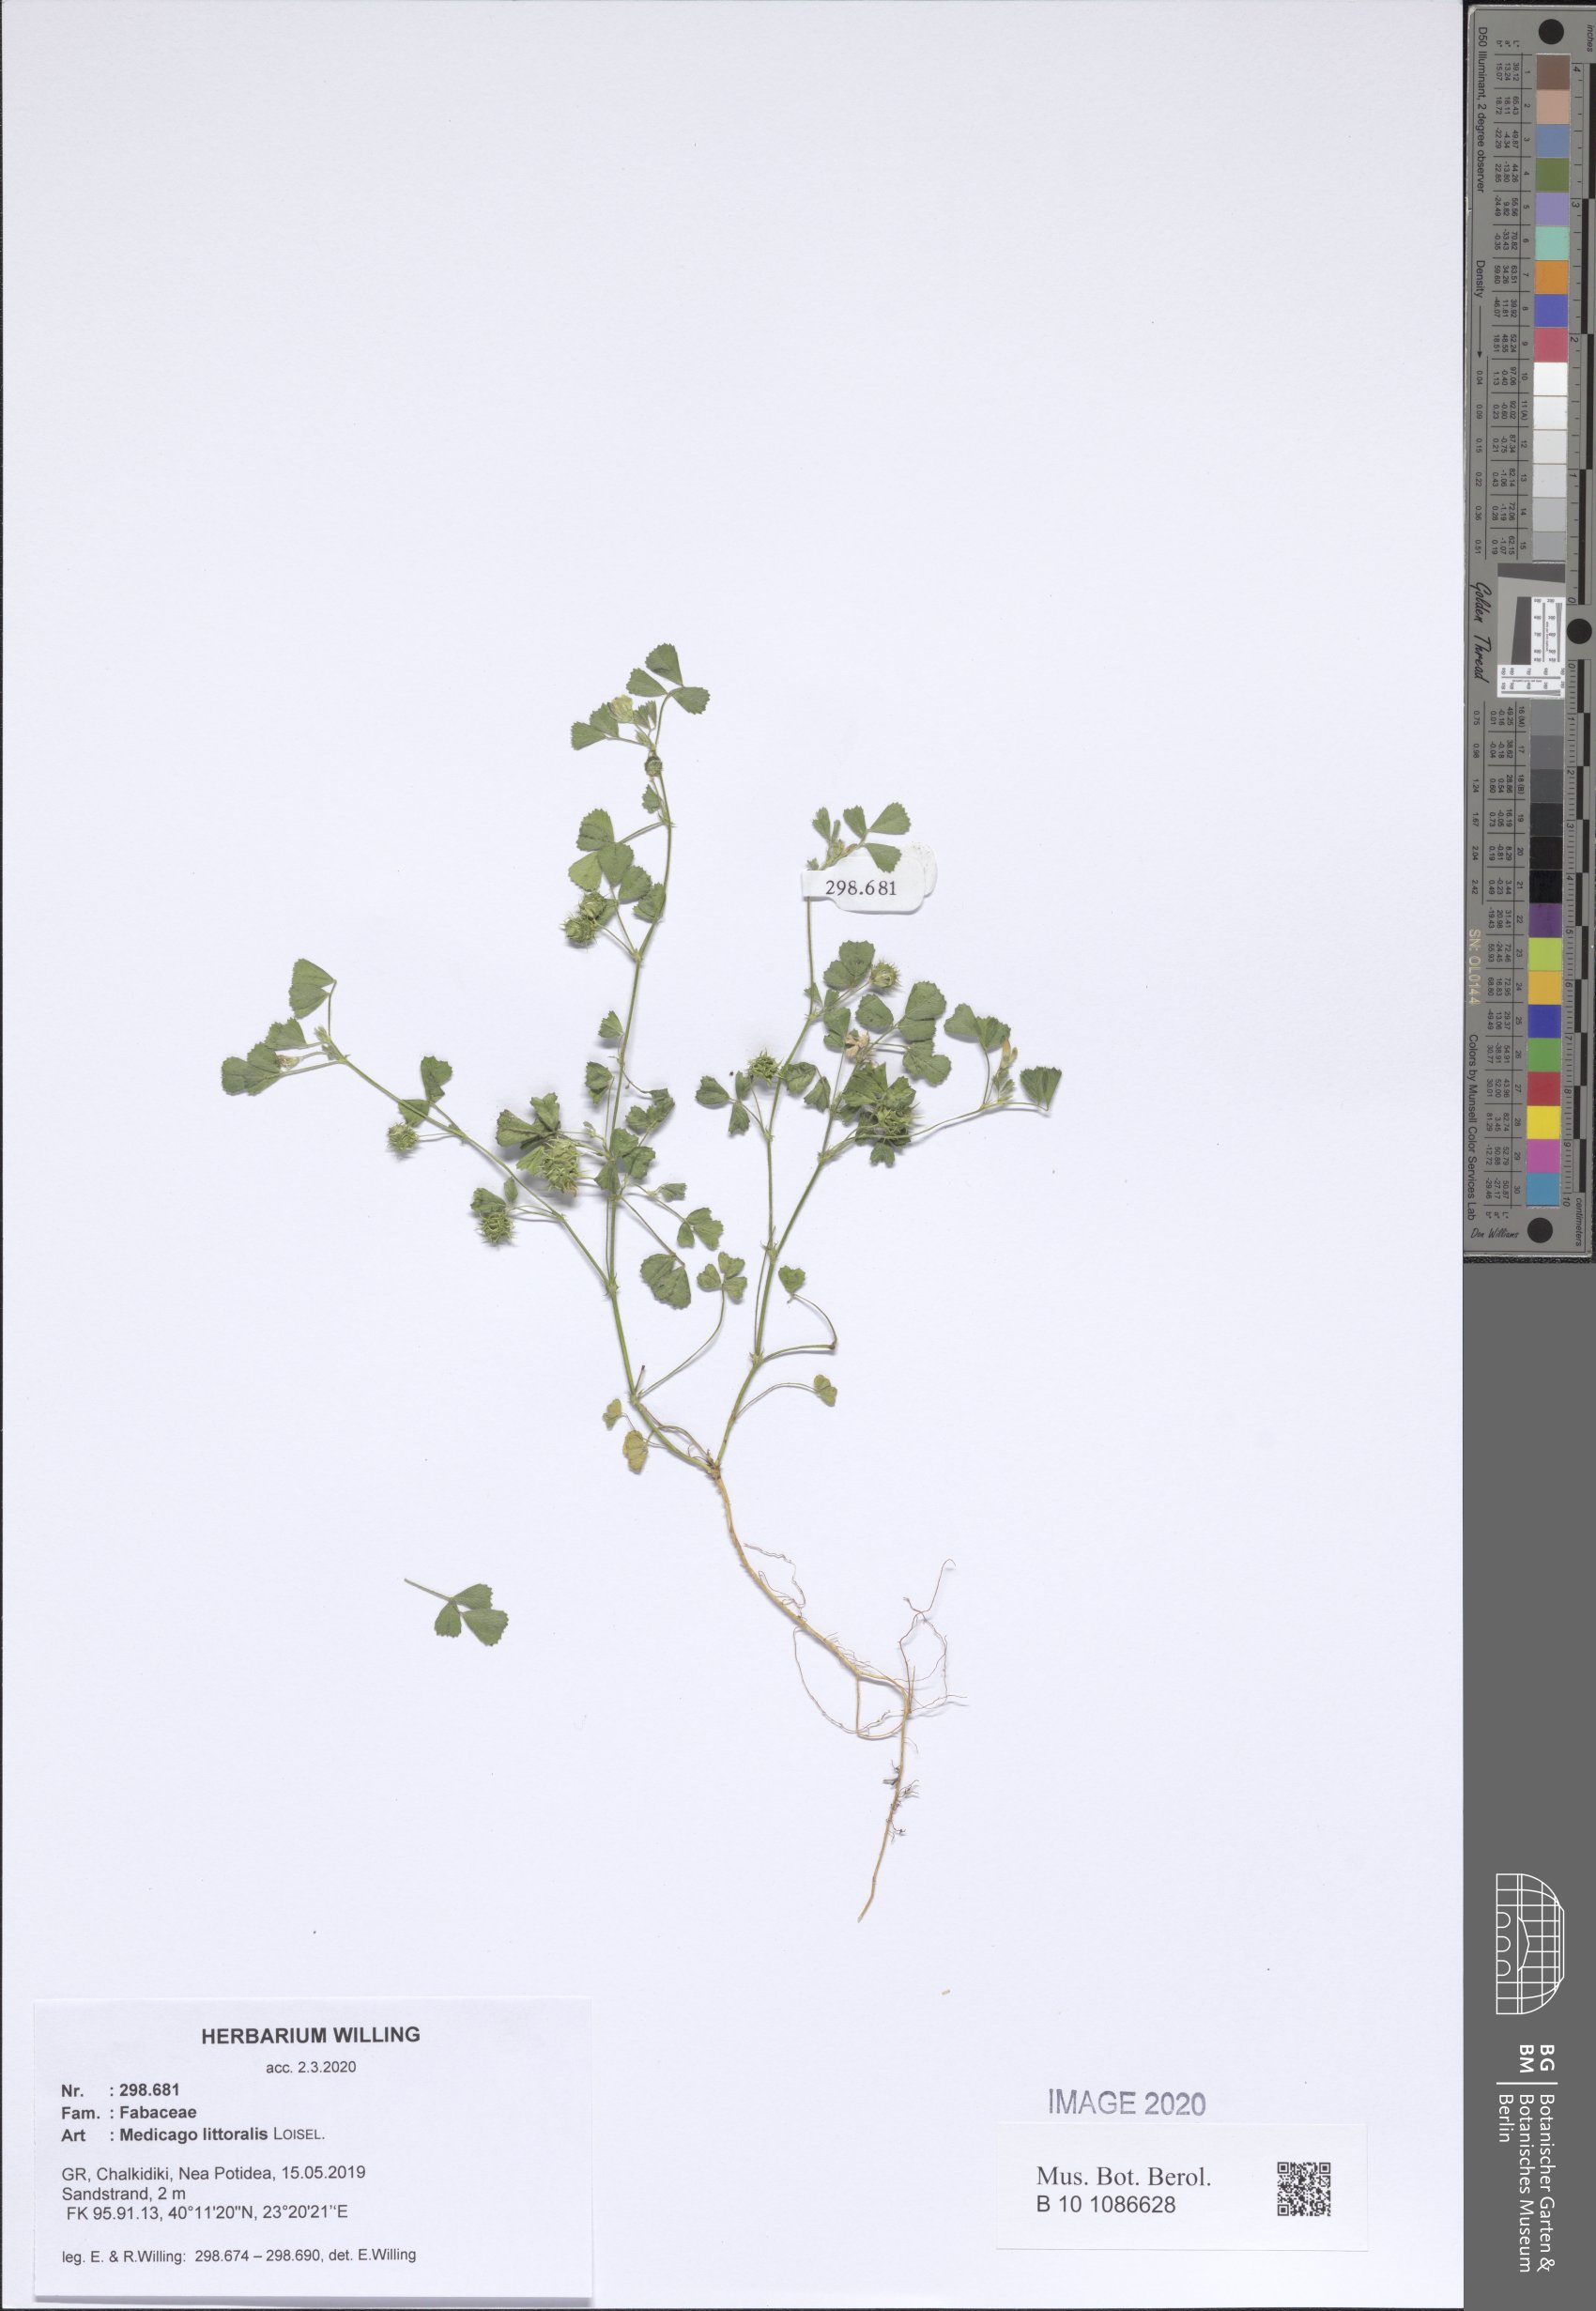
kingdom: Plantae
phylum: Tracheophyta
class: Magnoliopsida
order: Fabales
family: Fabaceae
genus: Medicago
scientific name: Medicago littoralis
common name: Shore medick
